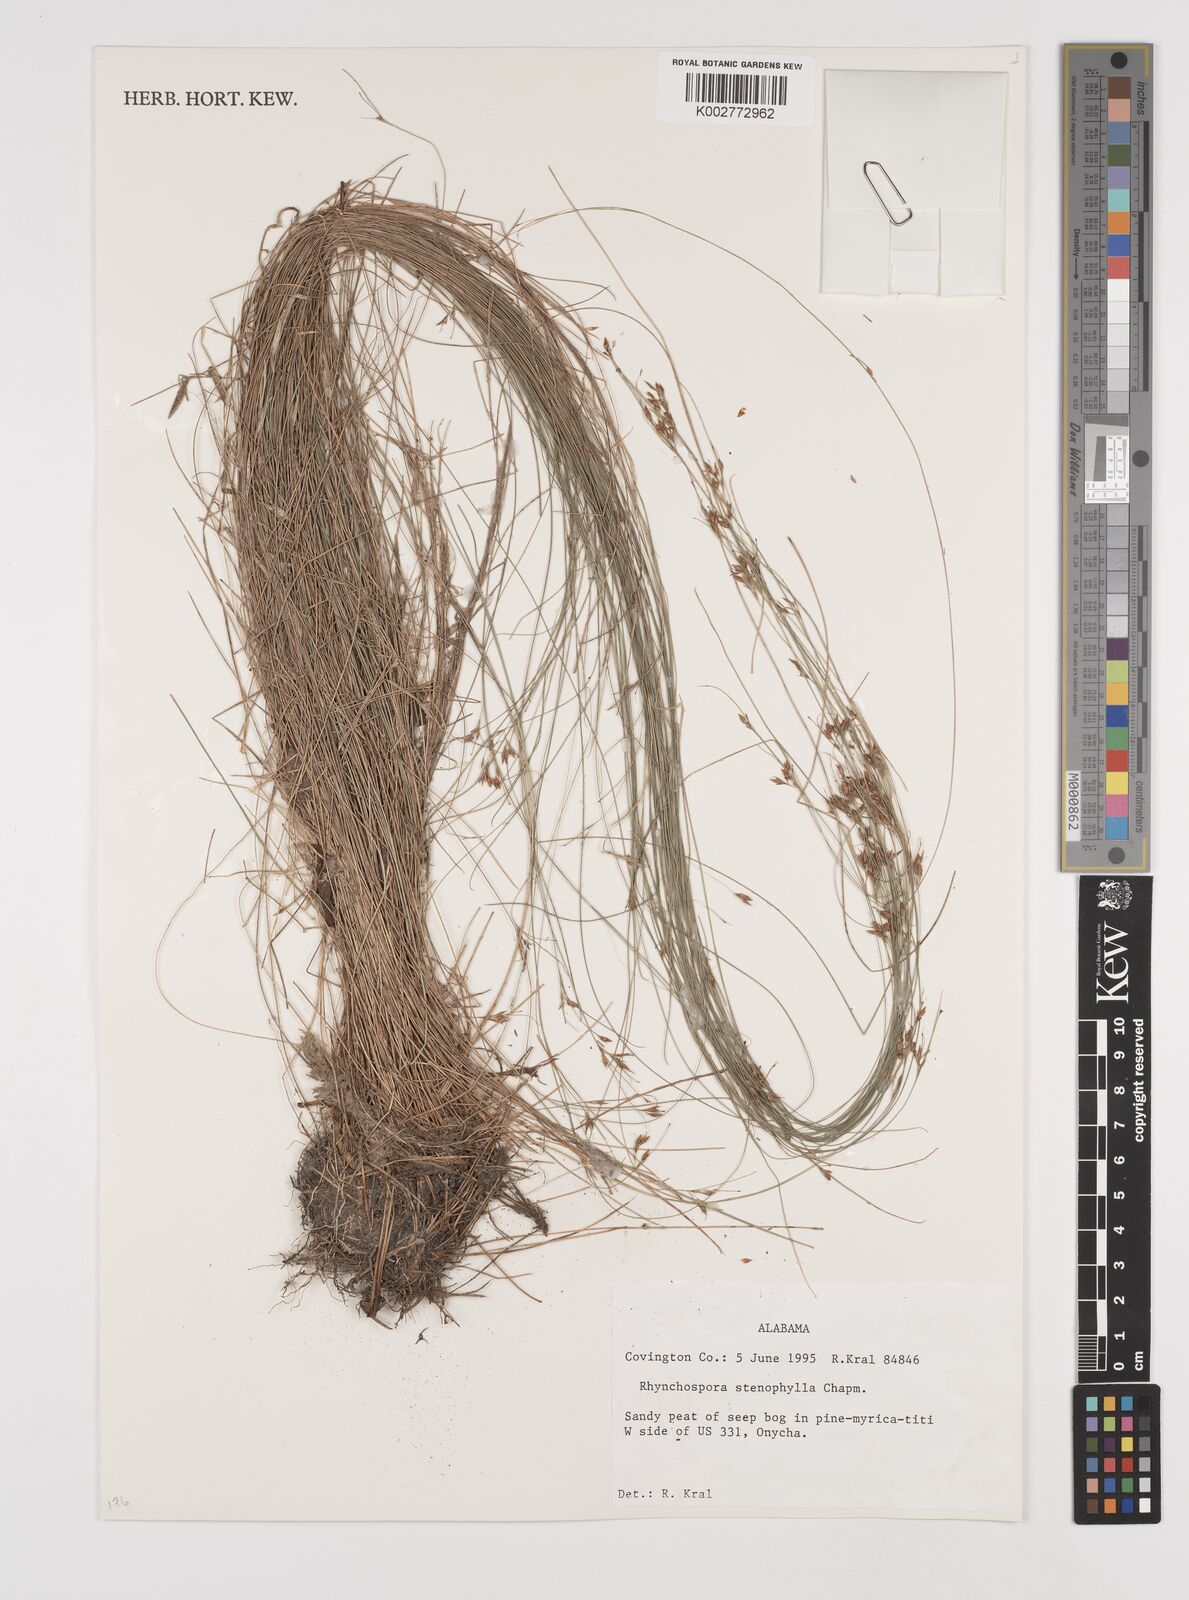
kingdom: Plantae
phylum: Tracheophyta
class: Liliopsida
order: Poales
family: Cyperaceae
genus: Rhynchospora
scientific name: Rhynchospora stenophylla
